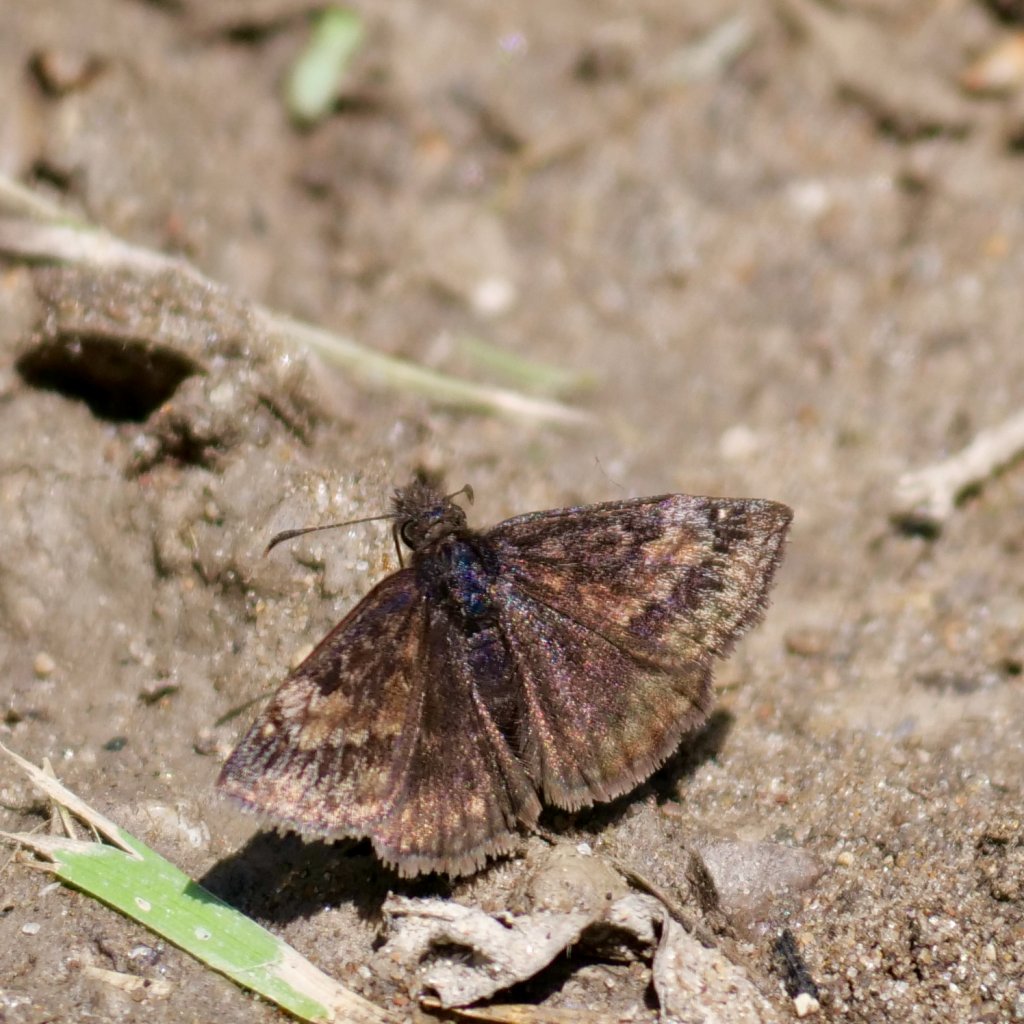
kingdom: Animalia
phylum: Arthropoda
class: Insecta
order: Lepidoptera
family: Hesperiidae
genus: Erynnis
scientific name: Erynnis
